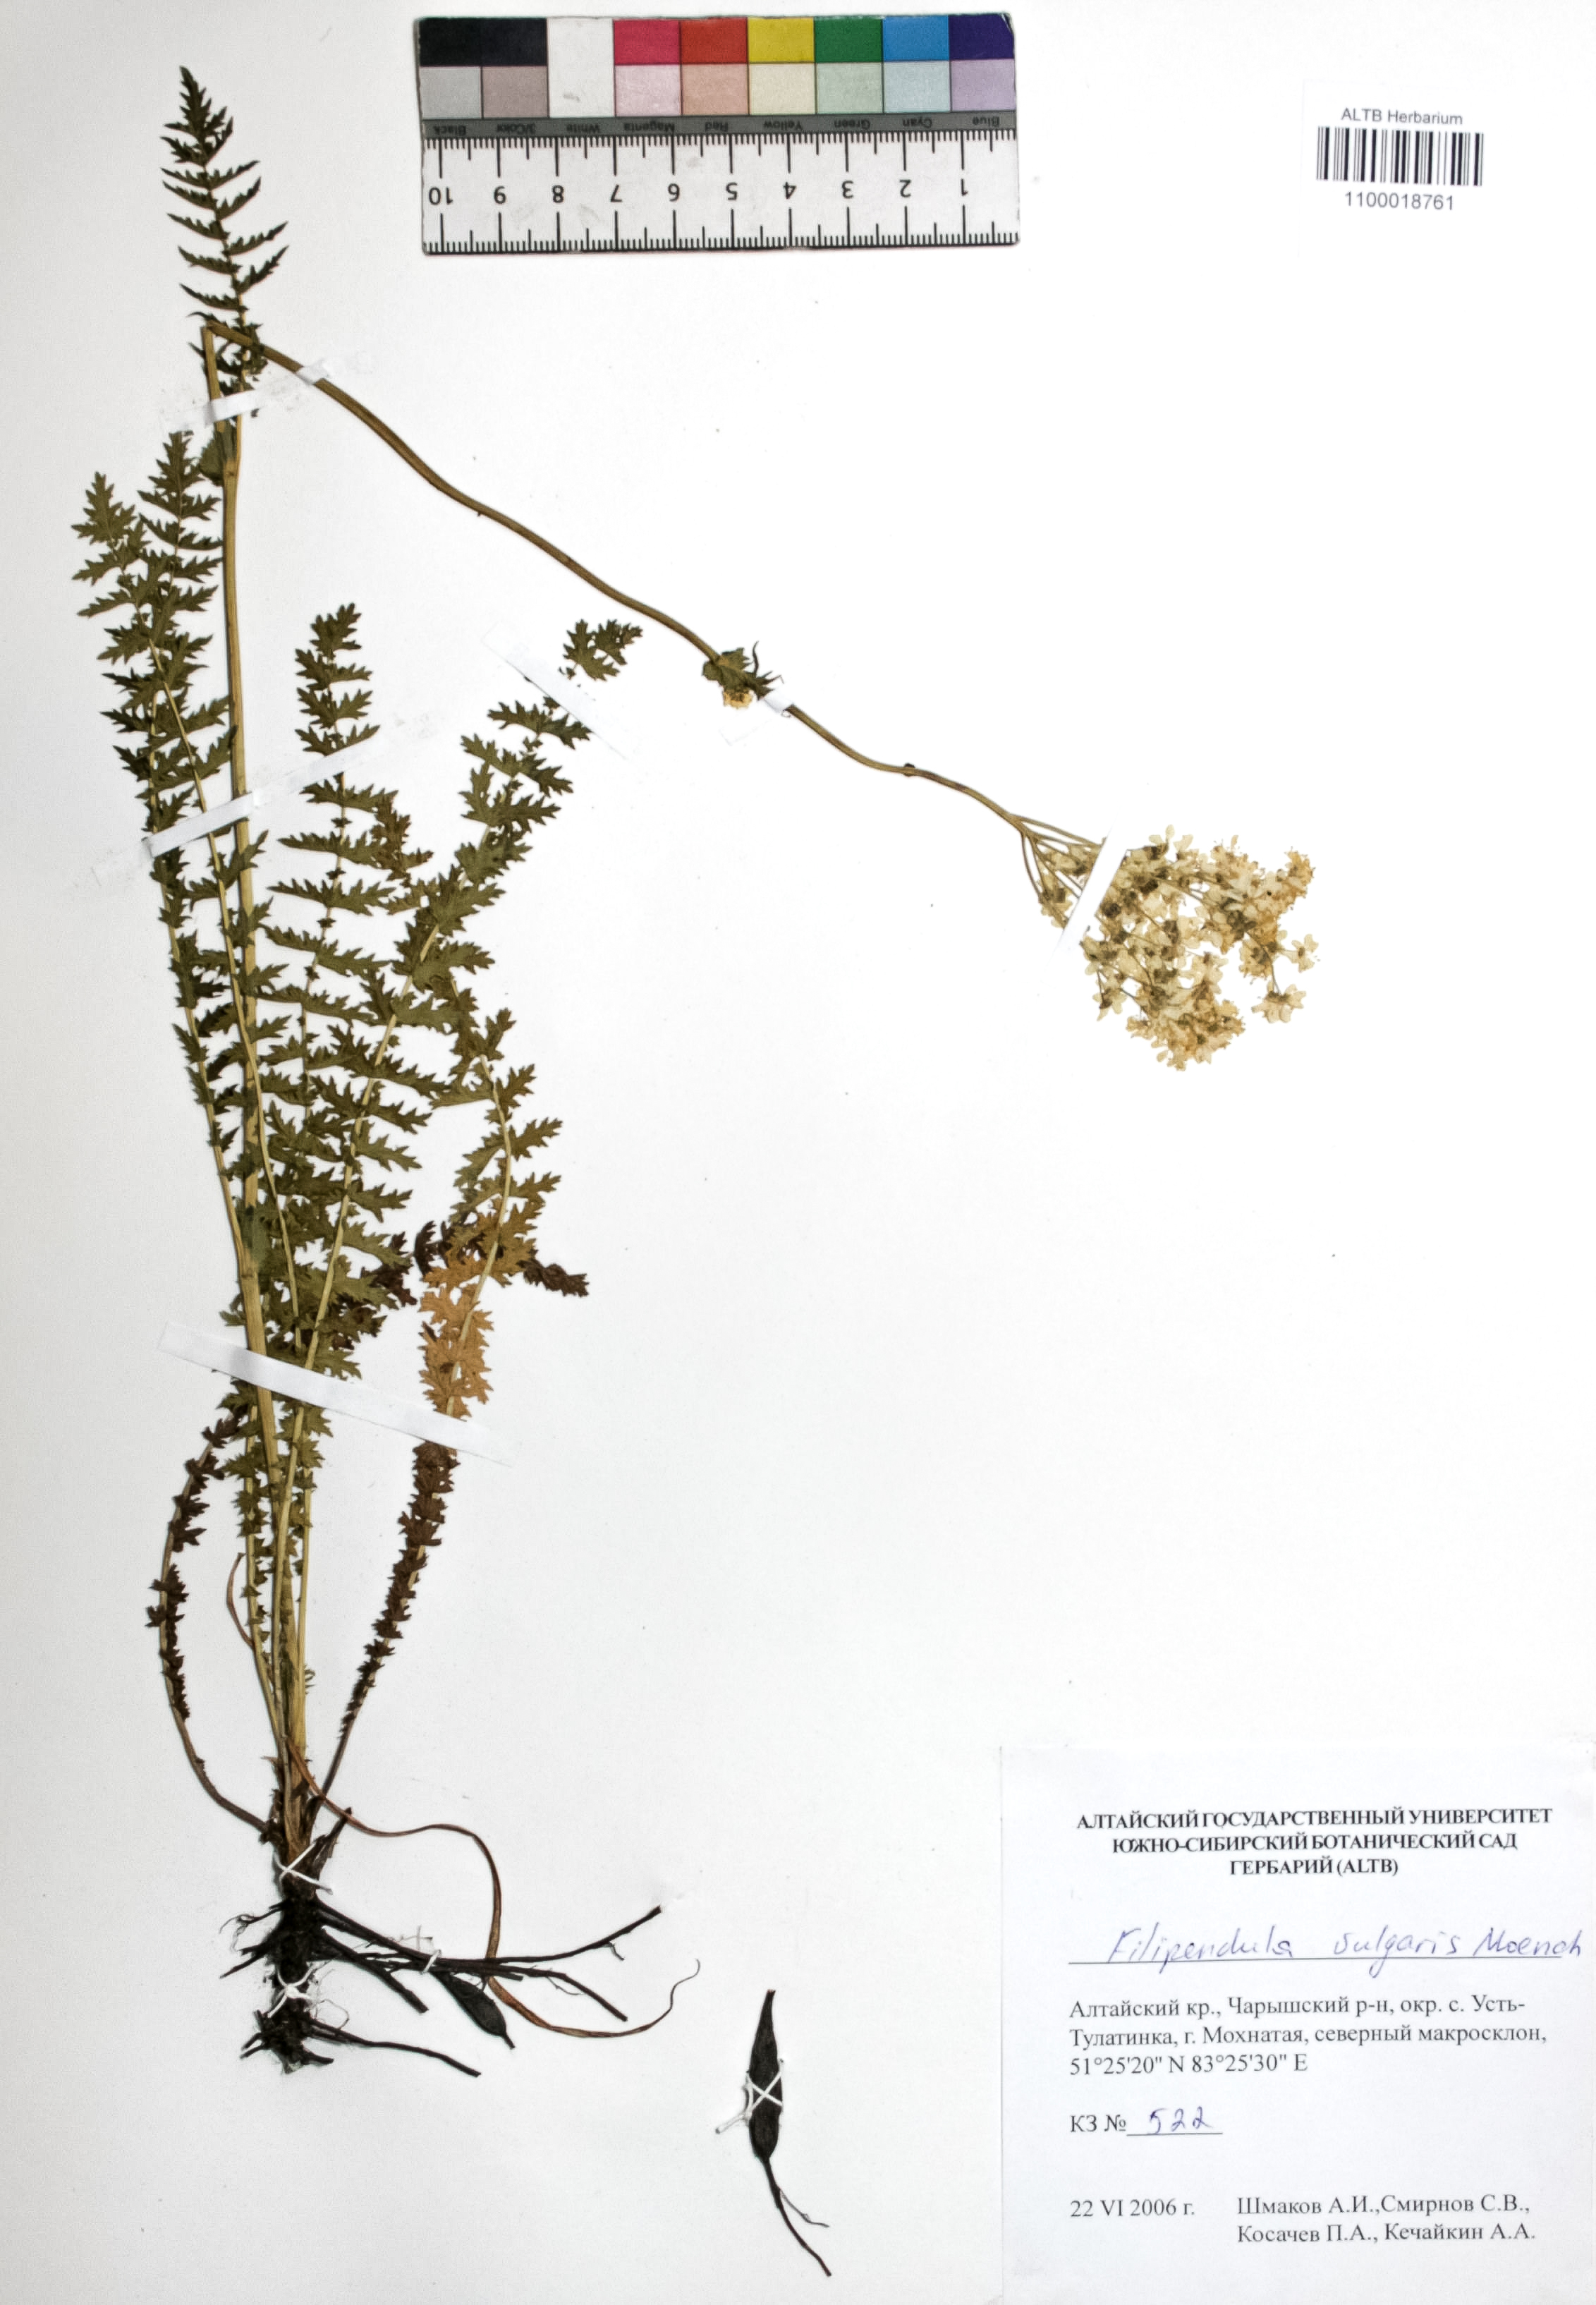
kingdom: Plantae
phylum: Tracheophyta
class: Magnoliopsida
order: Rosales
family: Rosaceae
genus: Filipendula
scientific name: Filipendula vulgaris
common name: Dropwort
